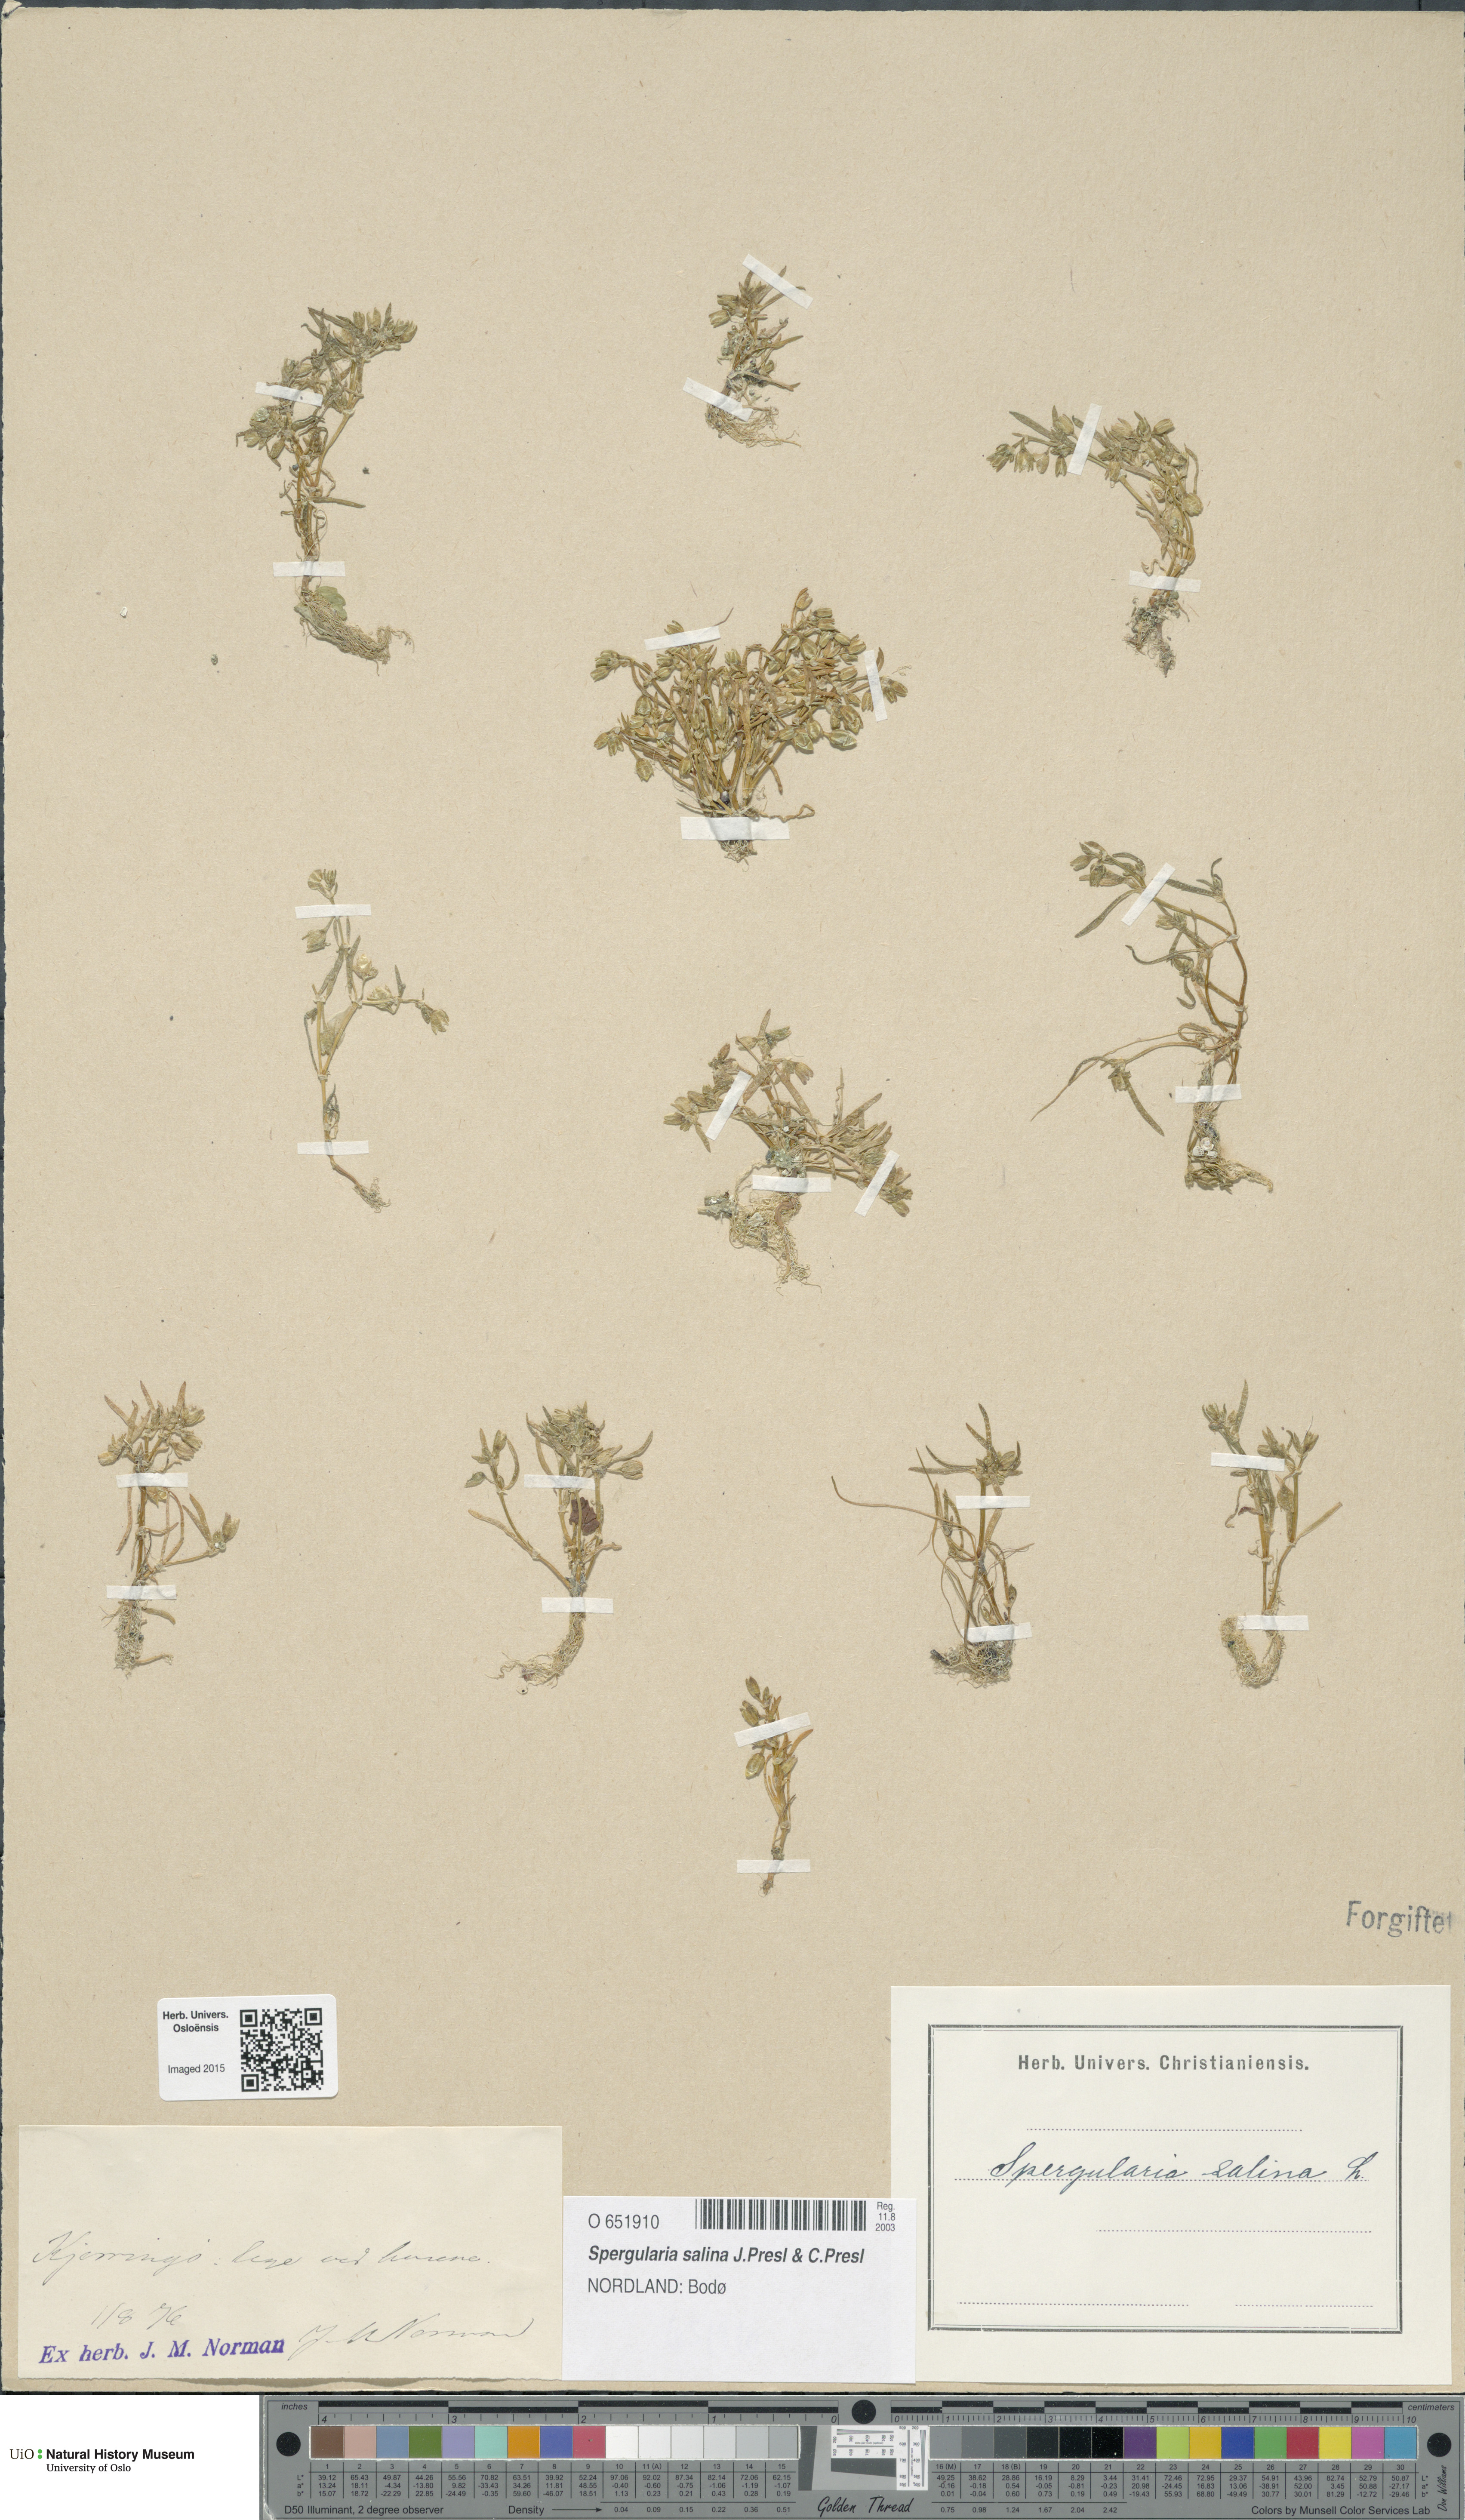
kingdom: Plantae
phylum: Tracheophyta
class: Magnoliopsida
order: Caryophyllales
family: Caryophyllaceae
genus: Spergularia
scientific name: Spergularia marina
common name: Lesser sea-spurrey
